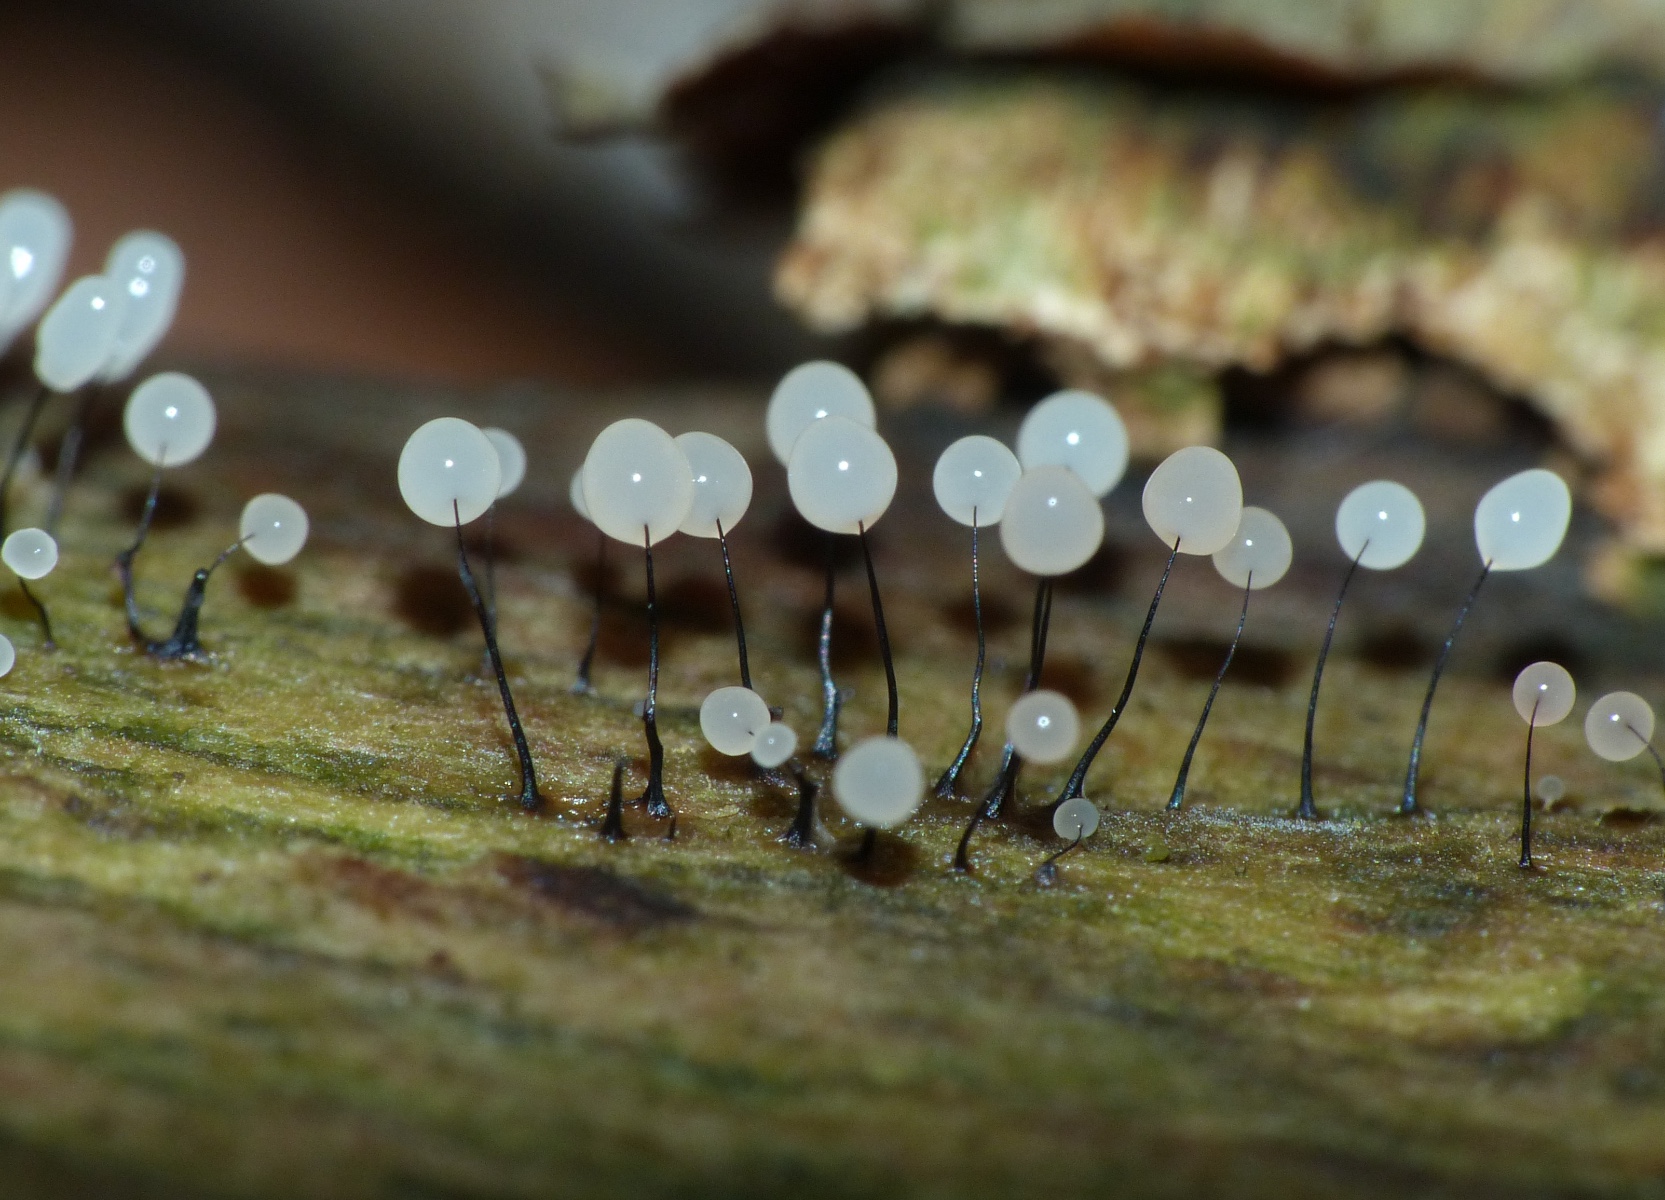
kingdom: Protozoa
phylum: Mycetozoa
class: Myxomycetes
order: Stemonitidales
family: Stemonitidaceae
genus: Comatricha
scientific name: Comatricha nigra
